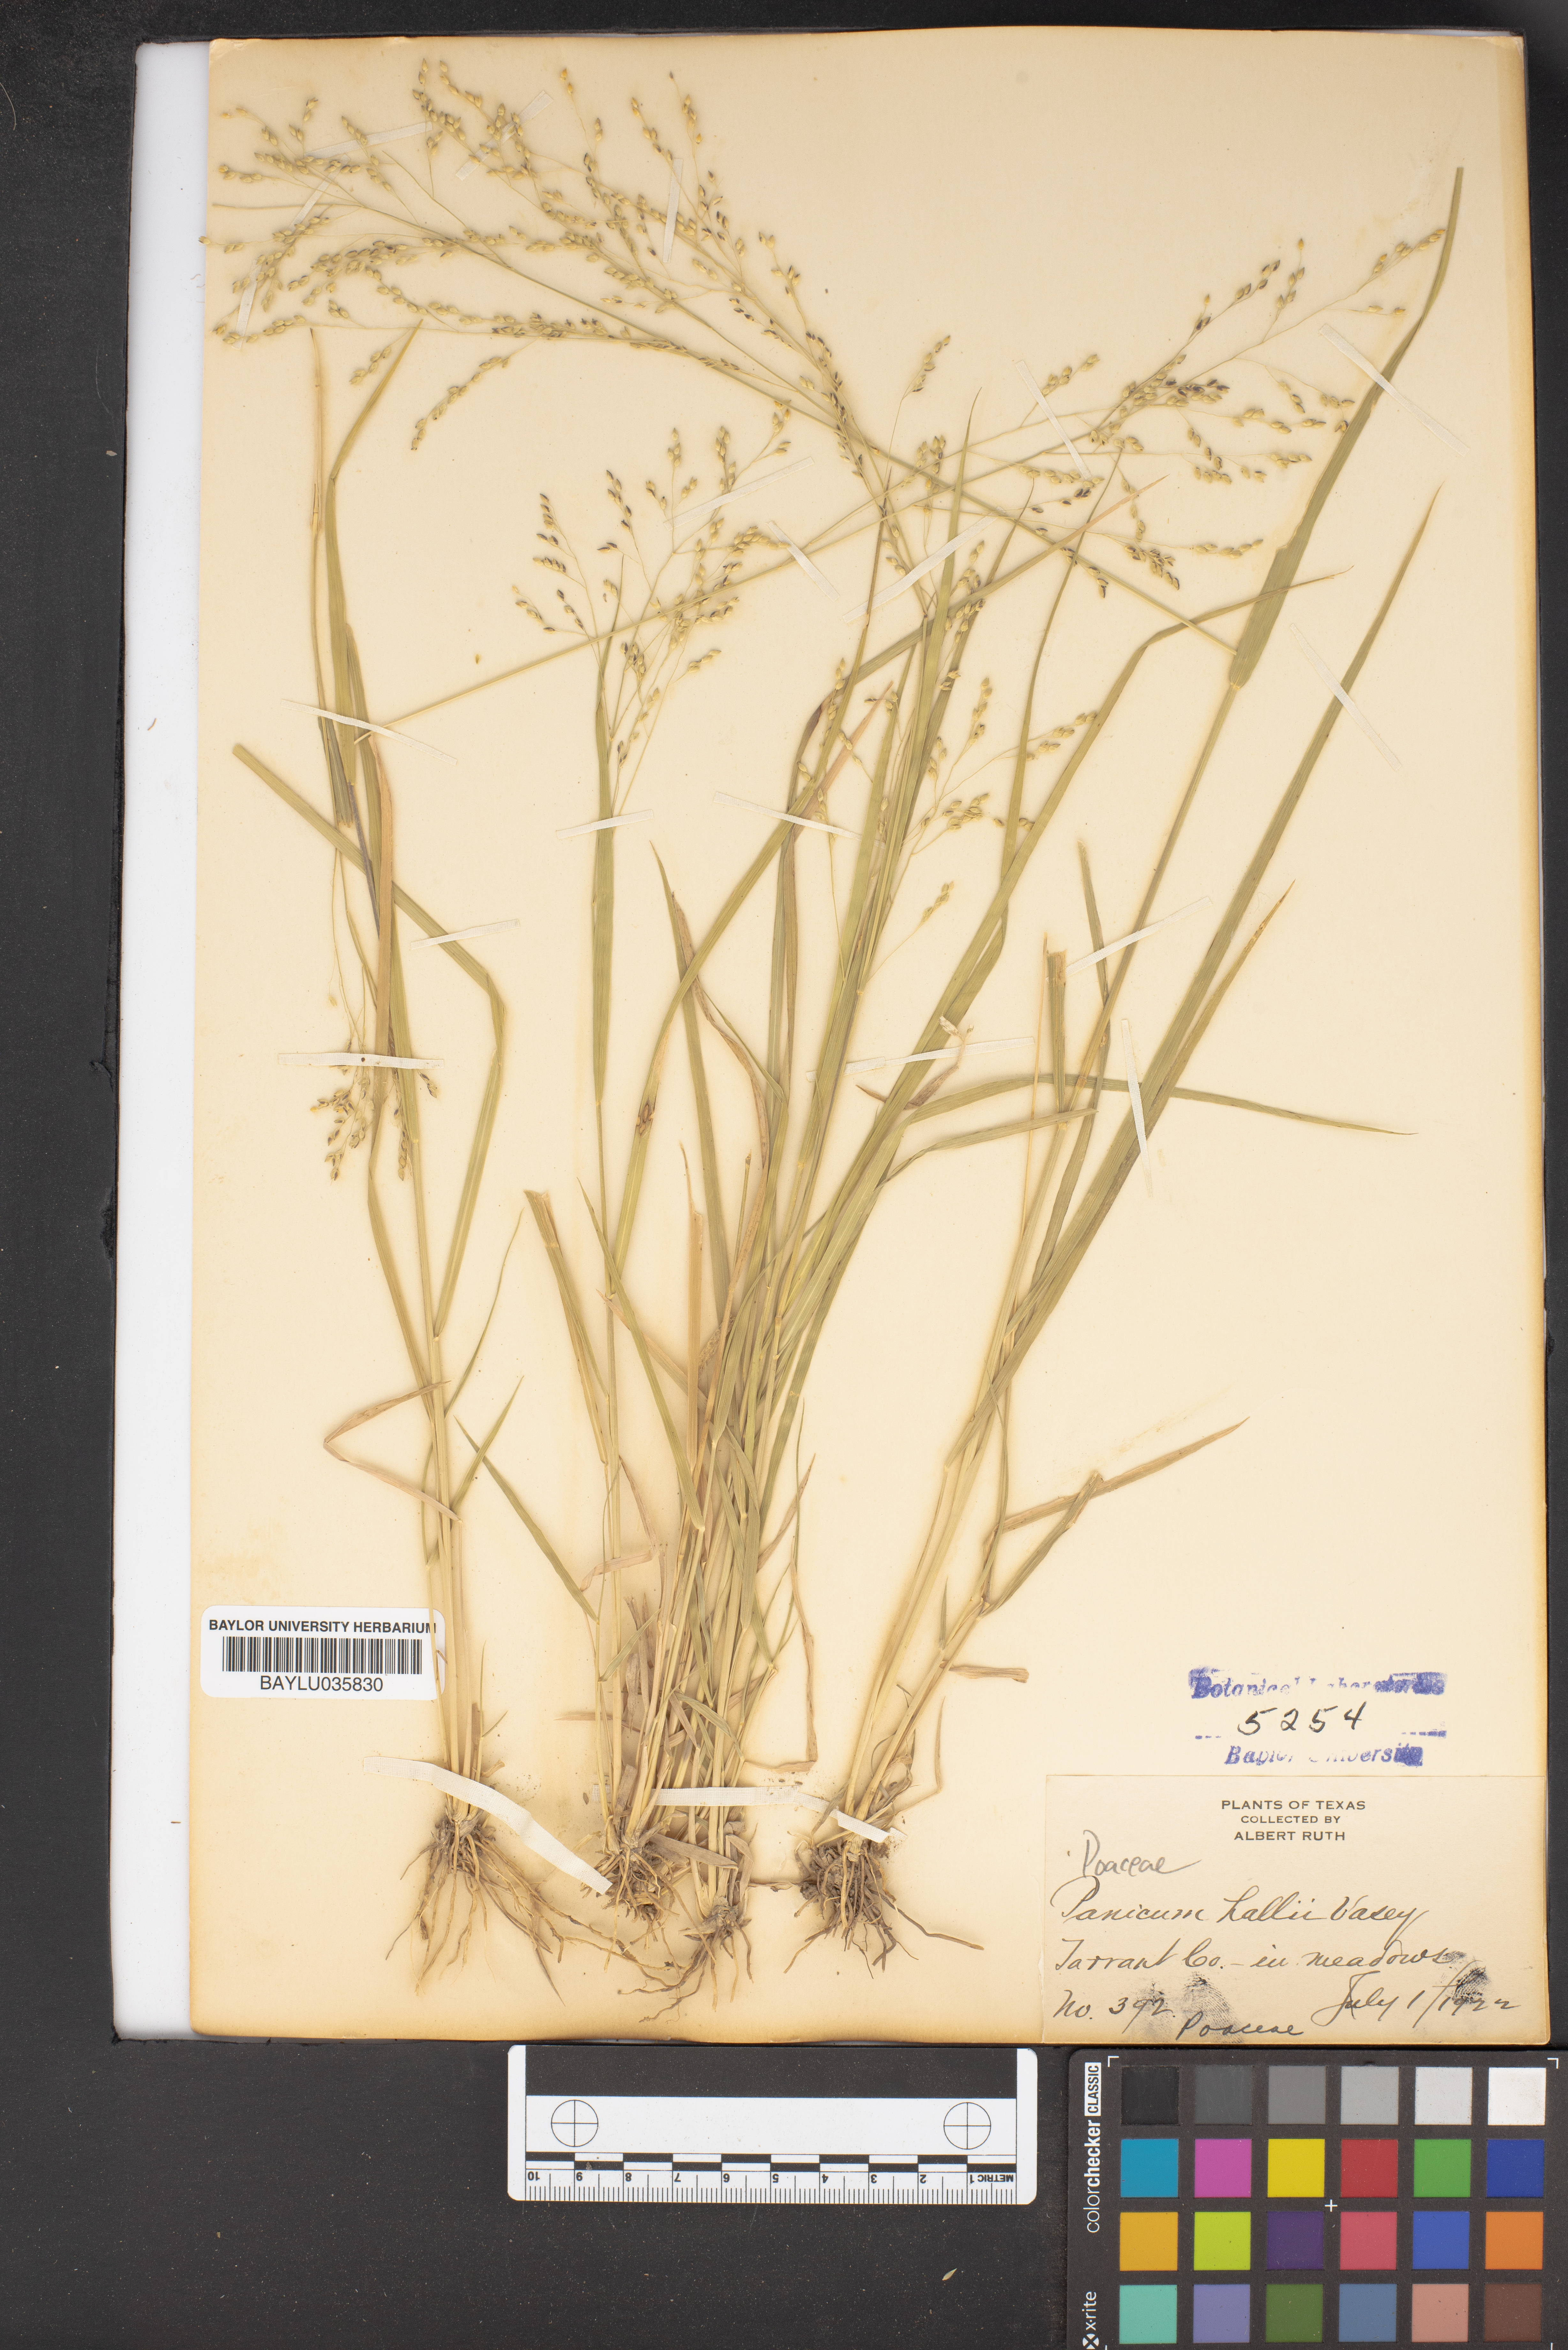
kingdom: Plantae
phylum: Tracheophyta
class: Liliopsida
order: Poales
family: Poaceae
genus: Panicum
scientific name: Panicum hallii
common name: Hall's witchgrass
